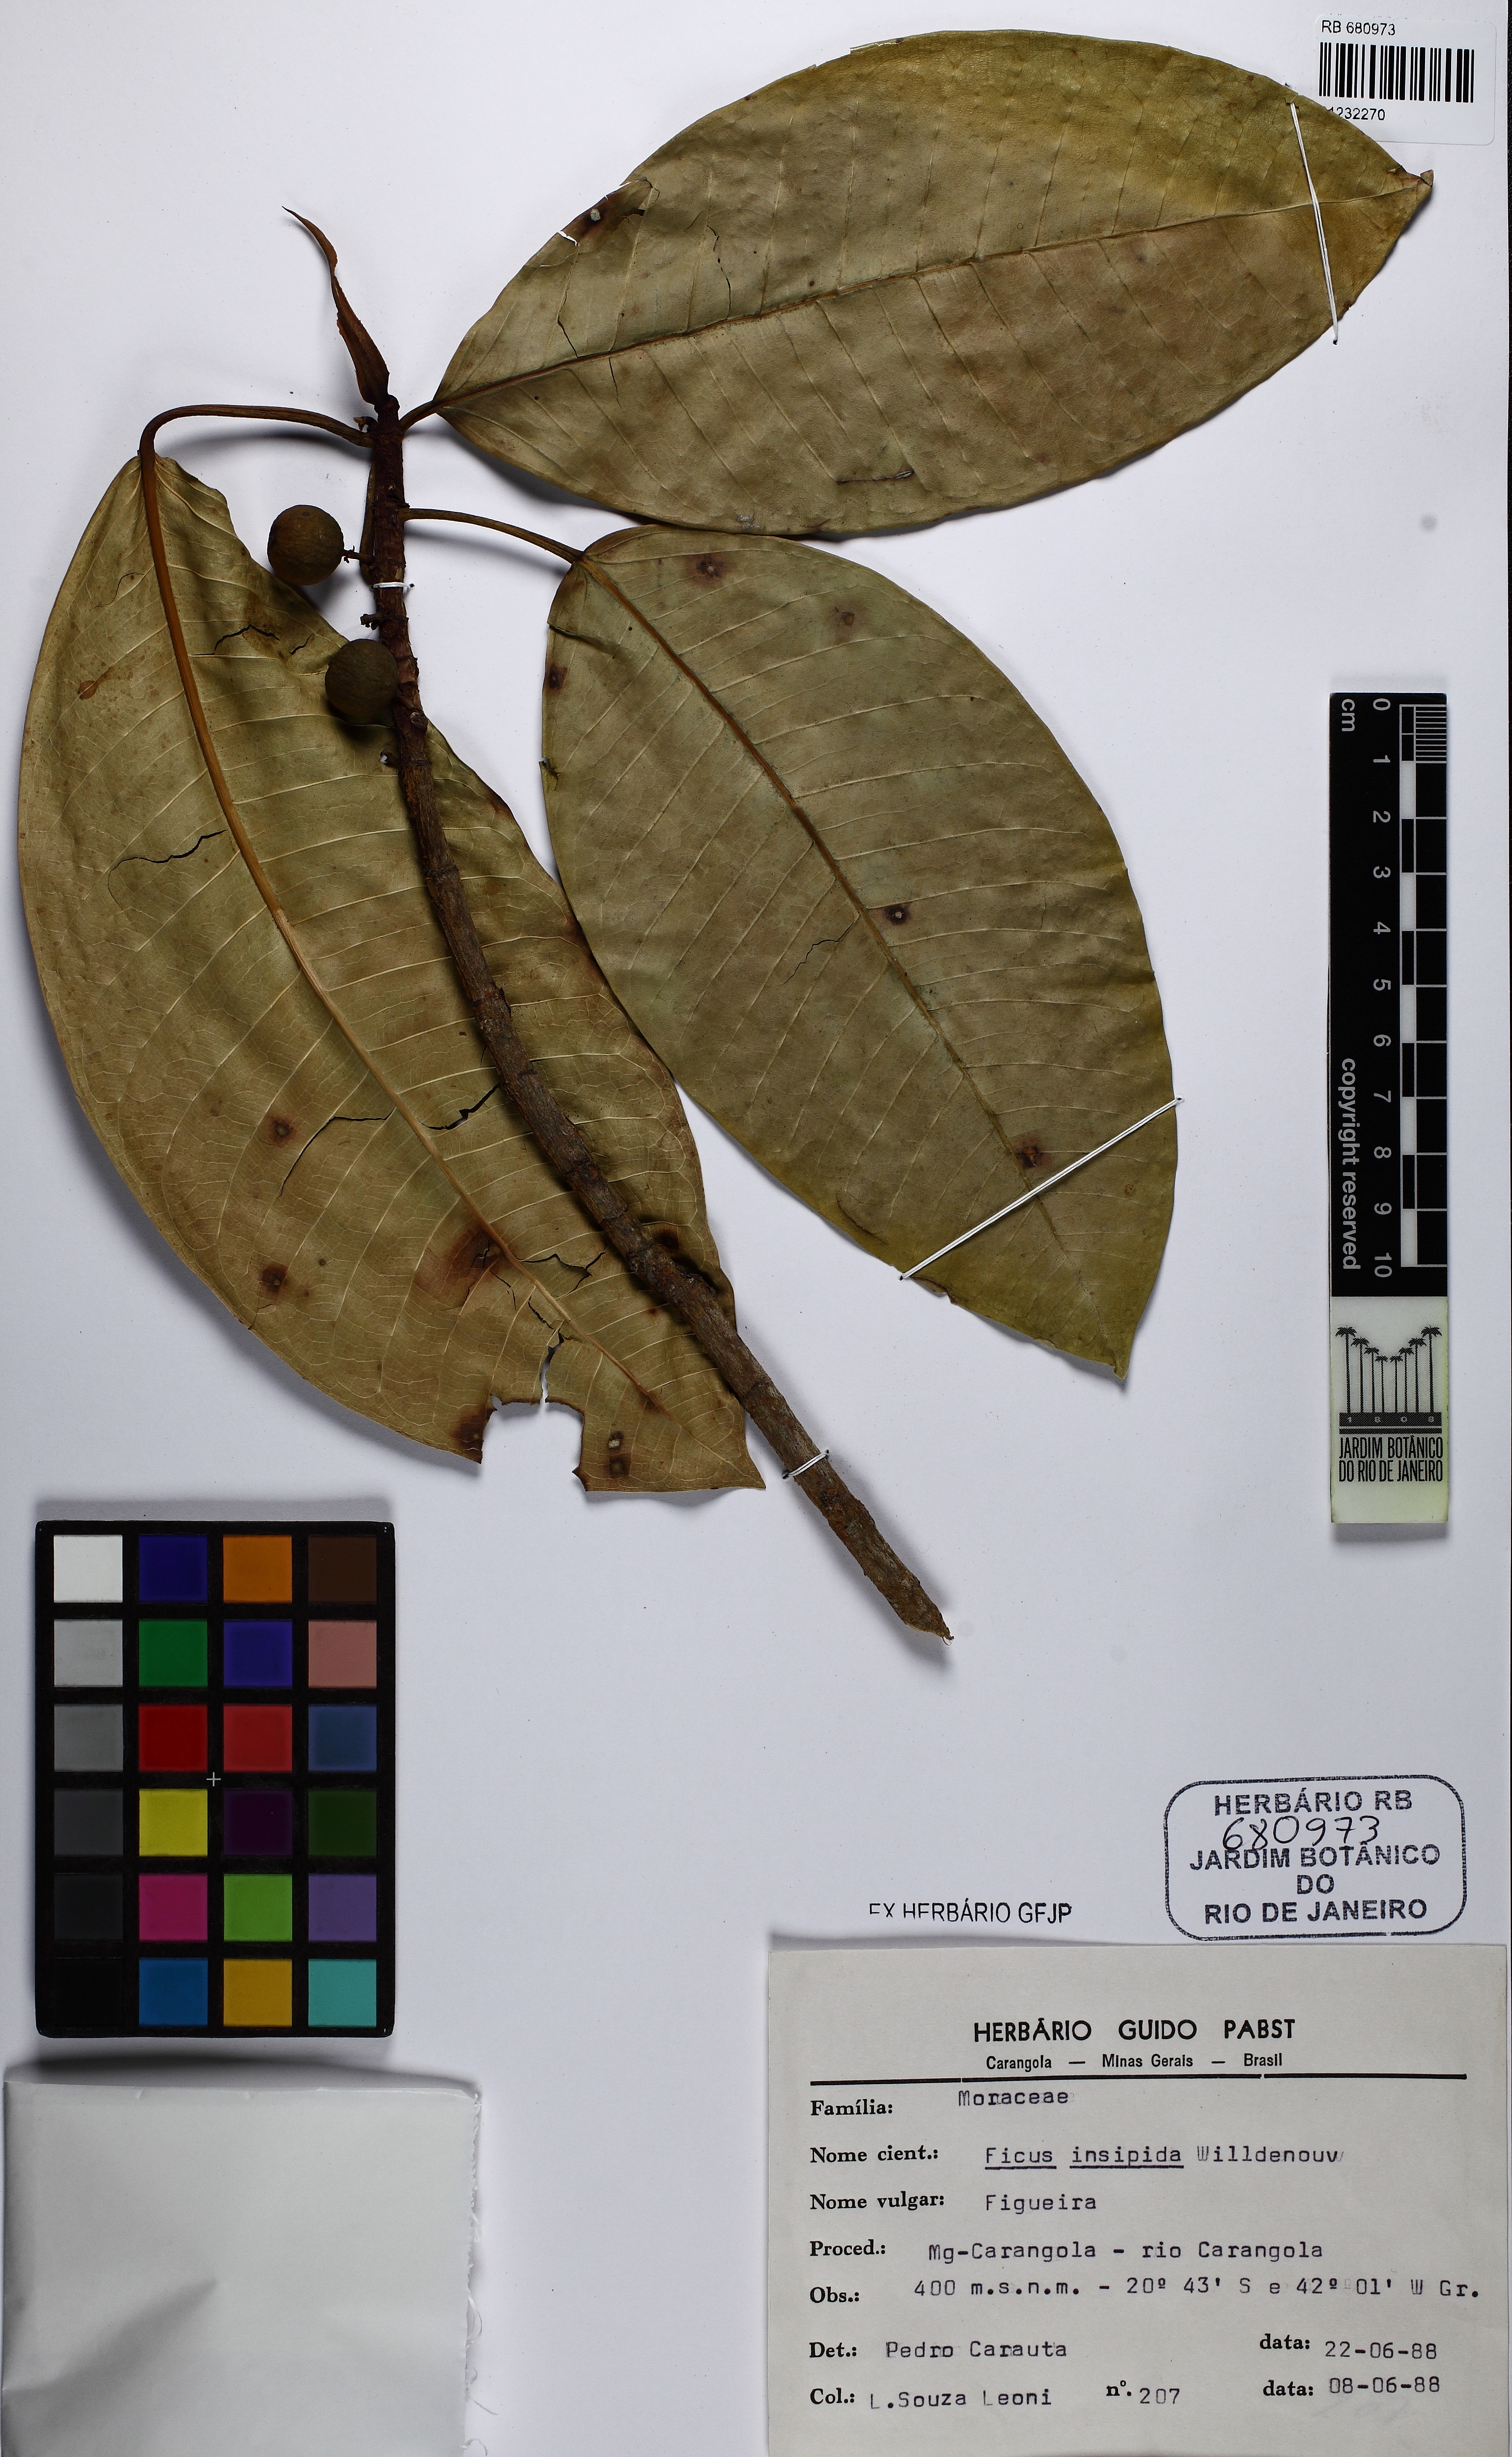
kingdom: Plantae
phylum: Tracheophyta
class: Magnoliopsida
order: Rosales
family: Moraceae
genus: Ficus
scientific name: Ficus insipida
